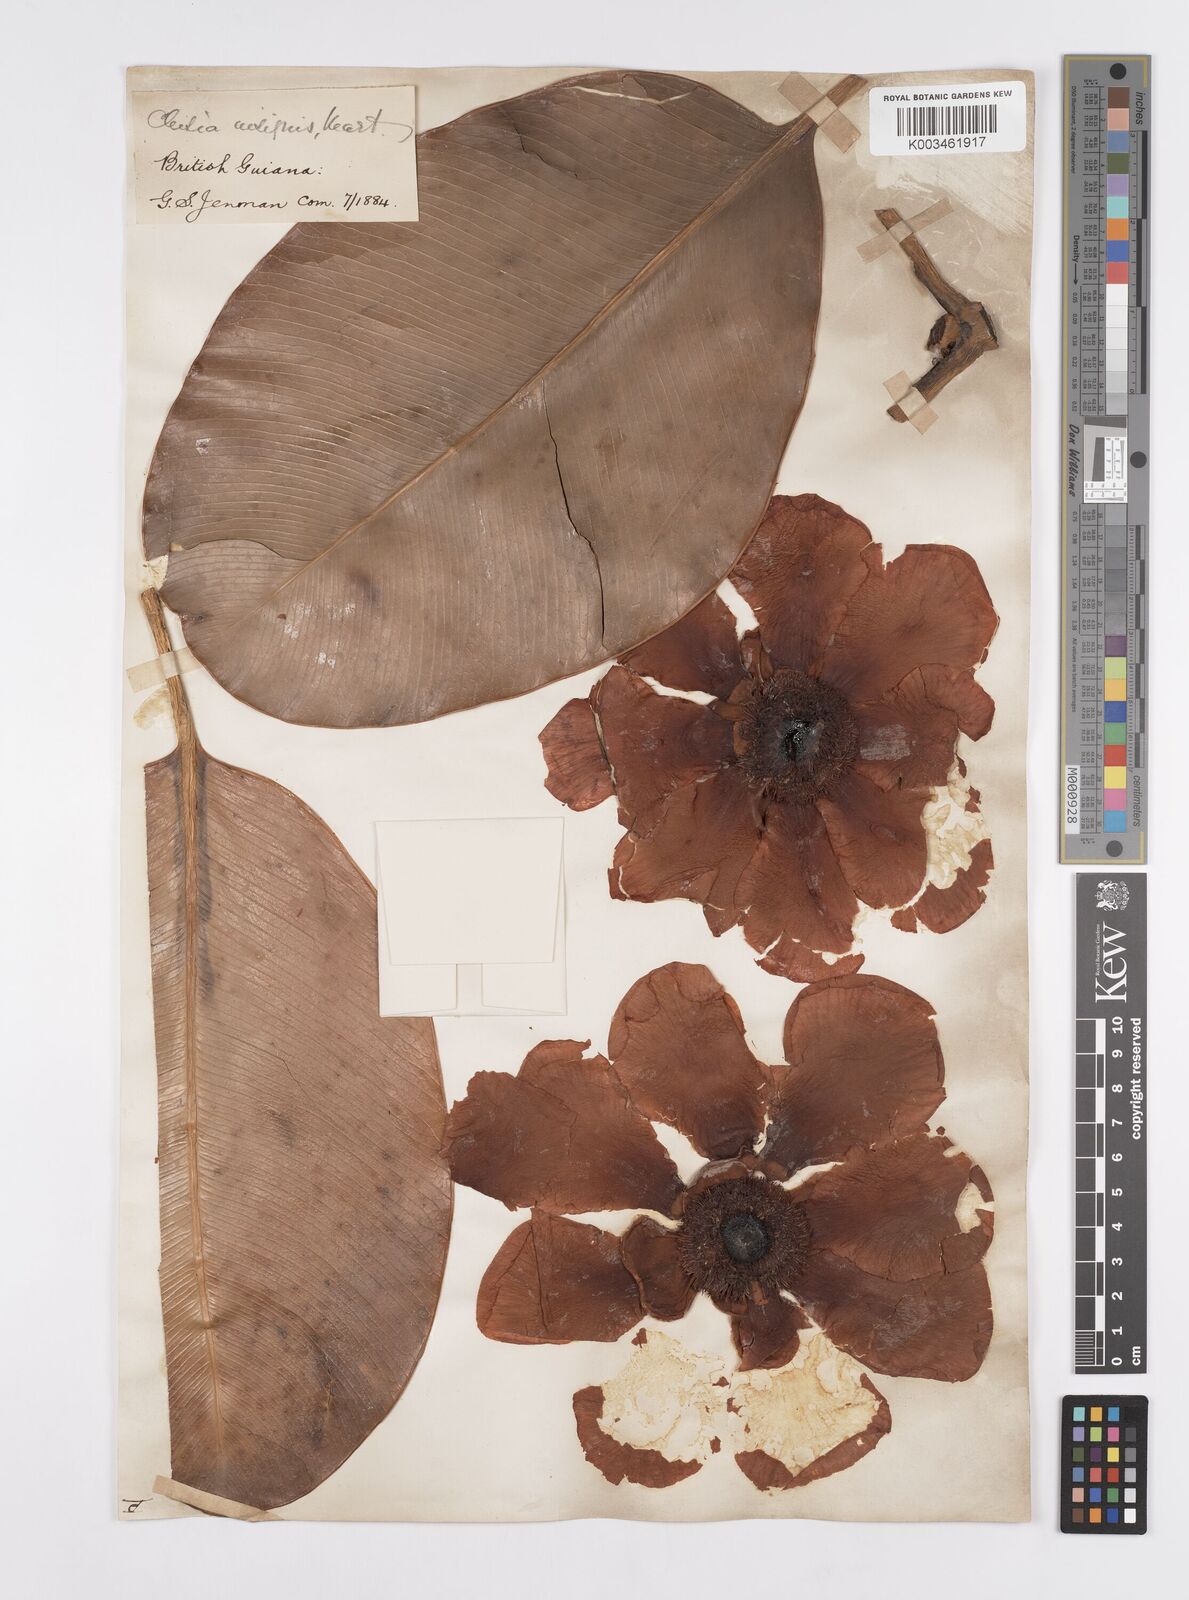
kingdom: Plantae
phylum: Tracheophyta
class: Magnoliopsida
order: Malpighiales
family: Clusiaceae
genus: Clusia
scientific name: Clusia grandiflora
